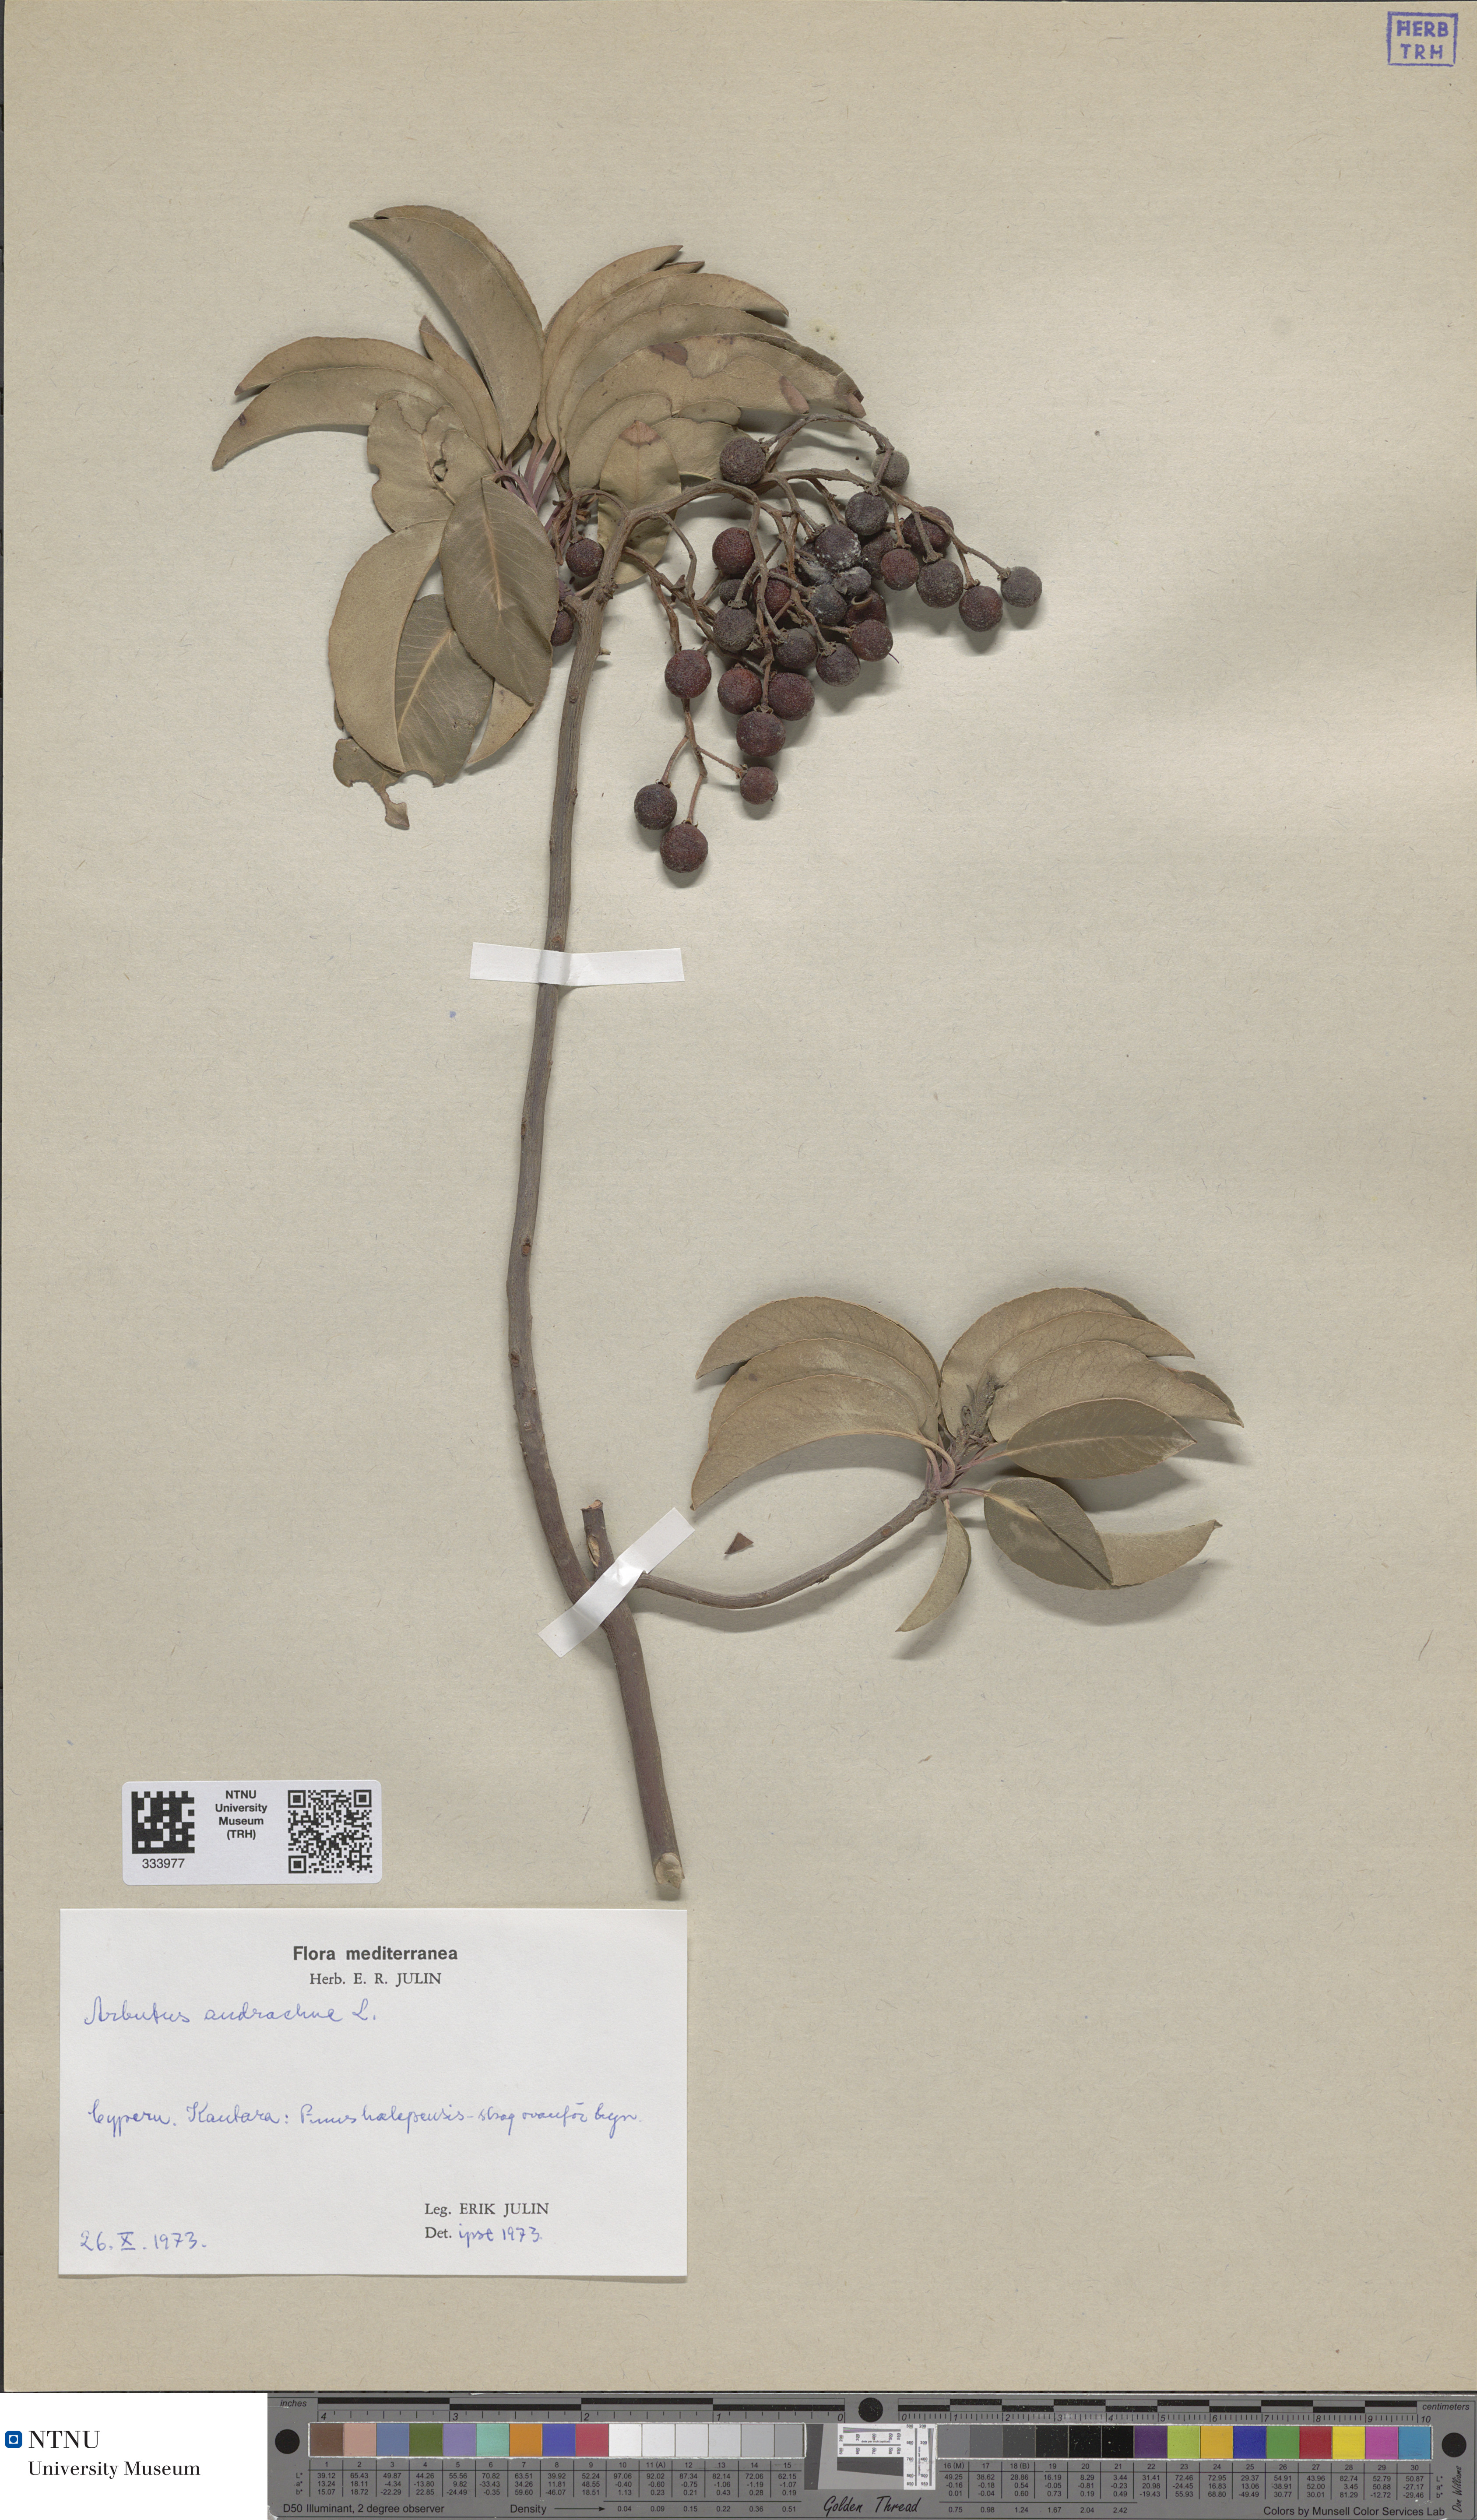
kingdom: Plantae
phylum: Tracheophyta
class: Magnoliopsida
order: Ericales
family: Ericaceae
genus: Arbutus
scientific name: Arbutus andrachne
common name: Greek strawberry tree
